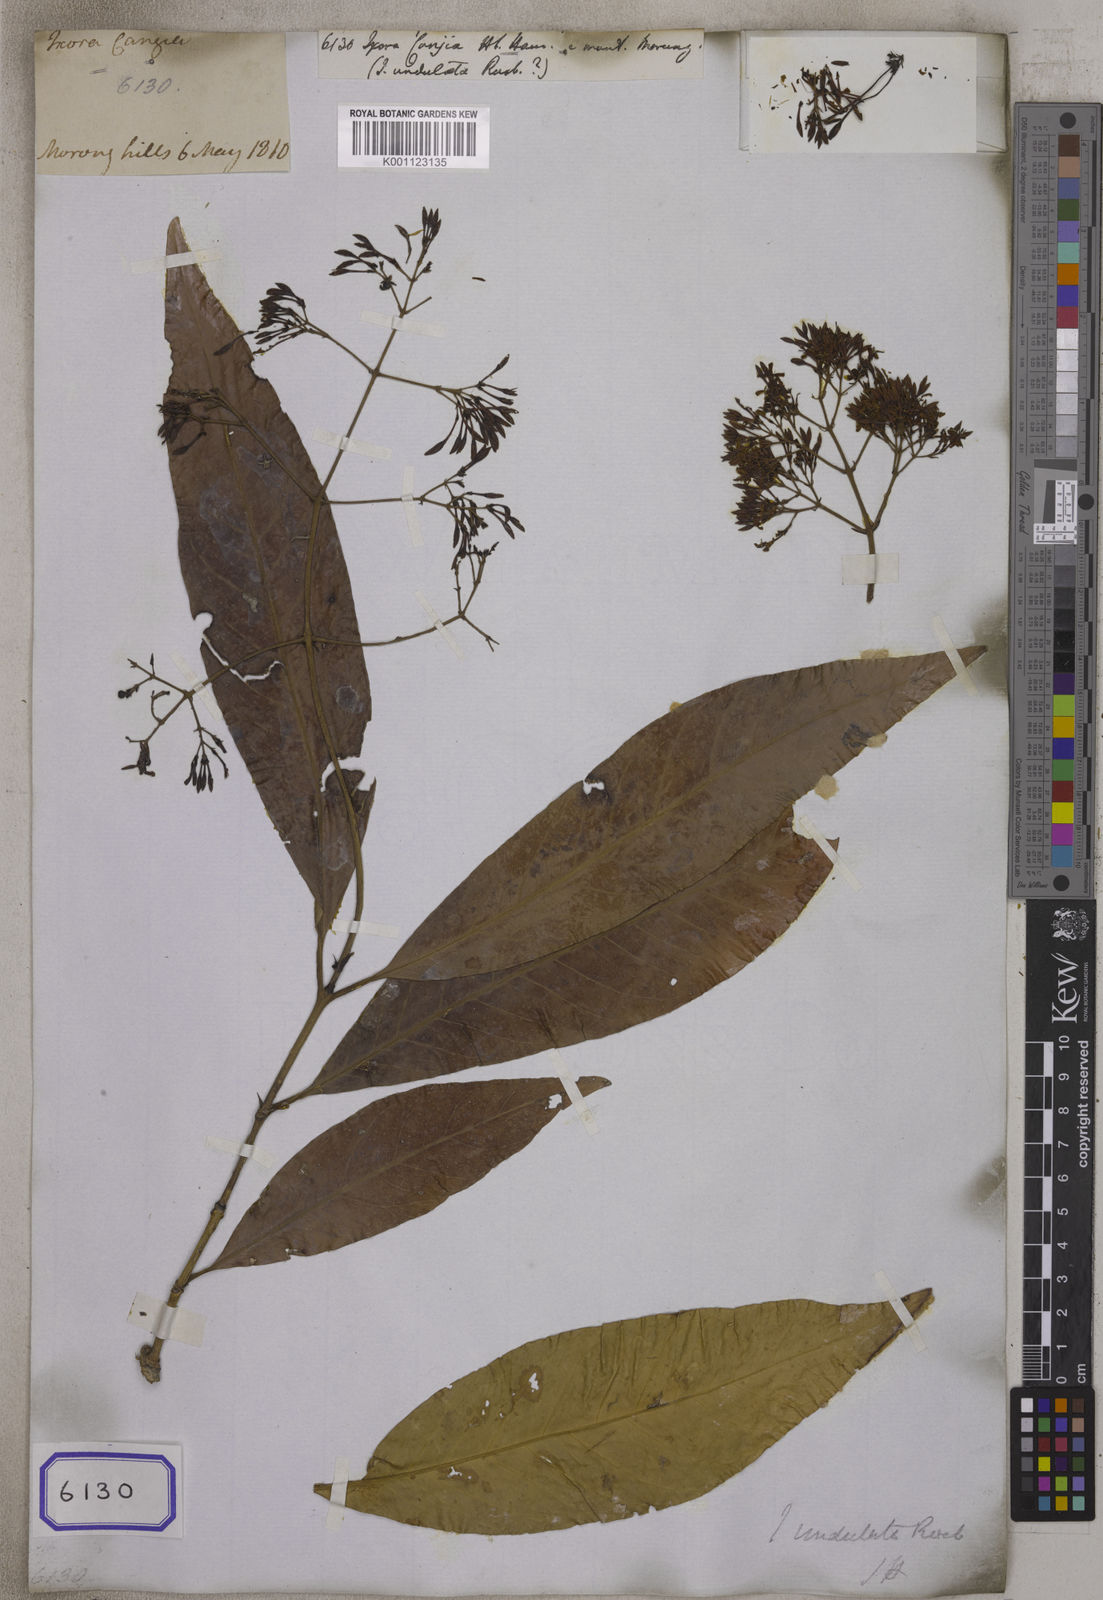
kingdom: Plantae
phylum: Tracheophyta
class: Magnoliopsida
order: Gentianales
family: Rubiaceae
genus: Ixora
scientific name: Ixora undulata
